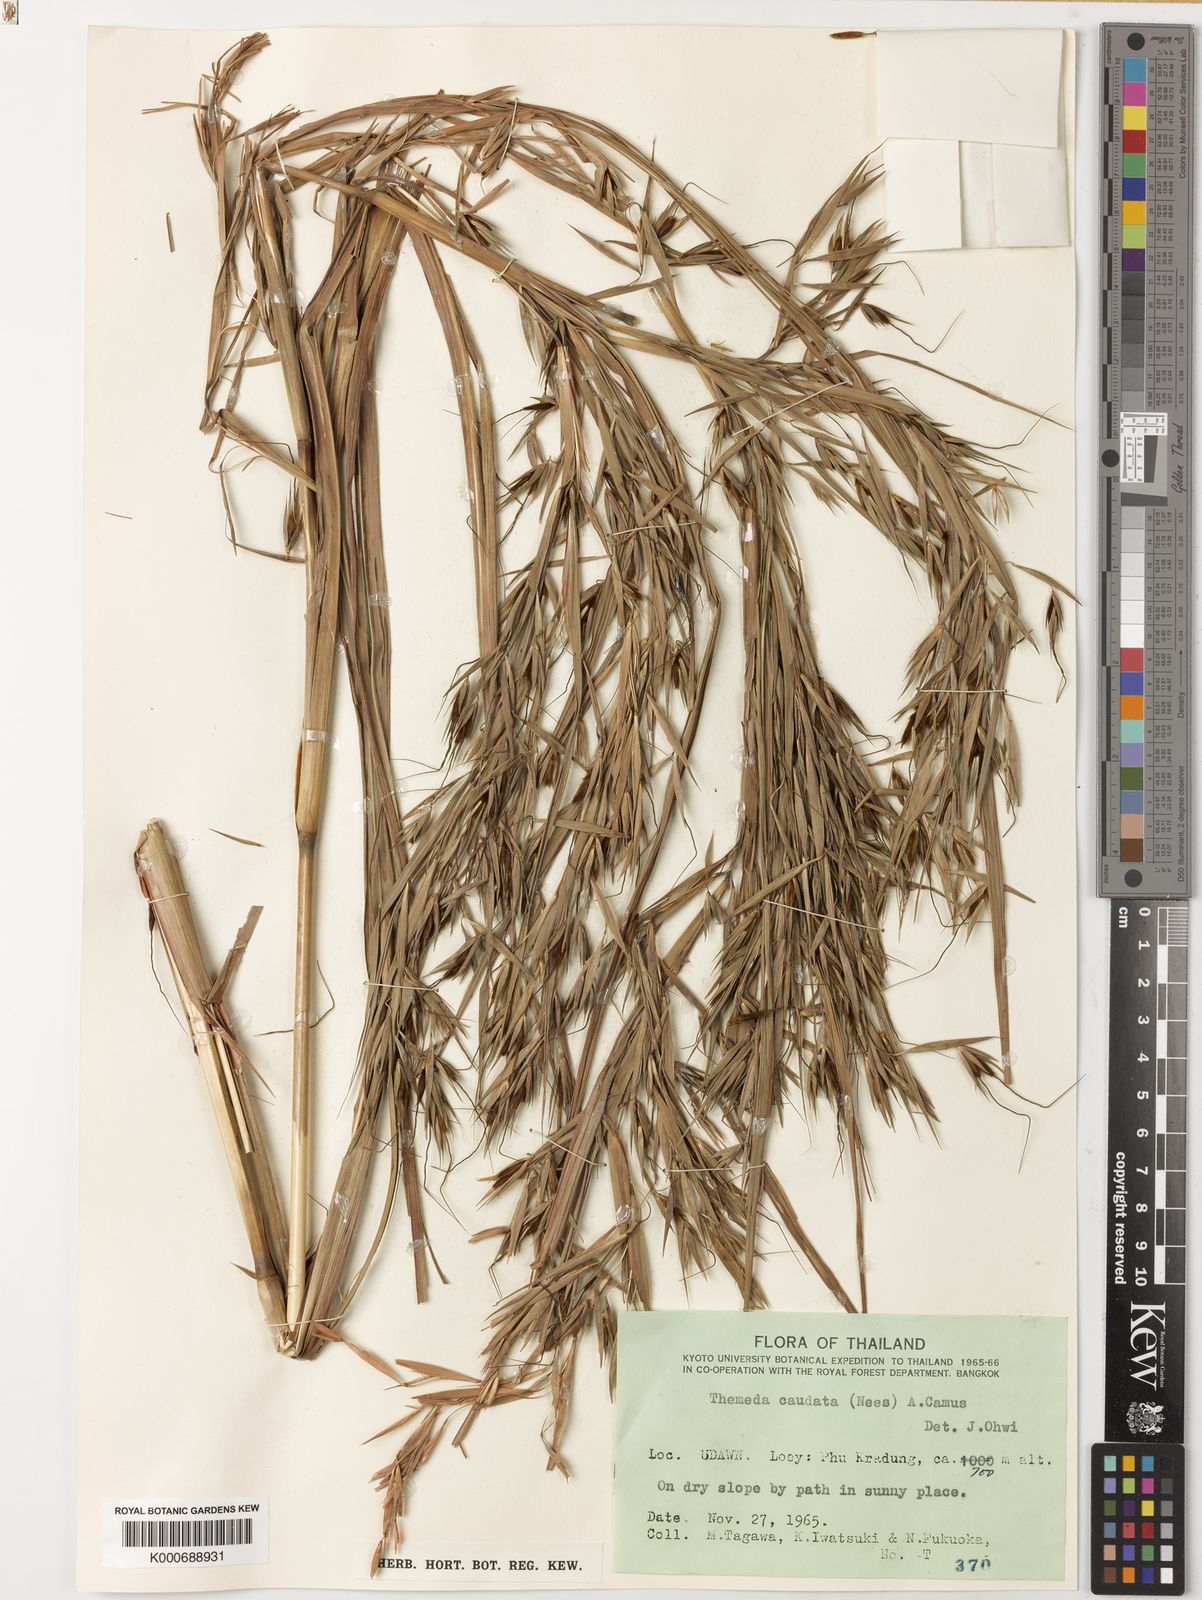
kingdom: Plantae
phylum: Tracheophyta
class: Liliopsida
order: Poales
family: Poaceae
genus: Themeda
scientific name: Themeda caudata
